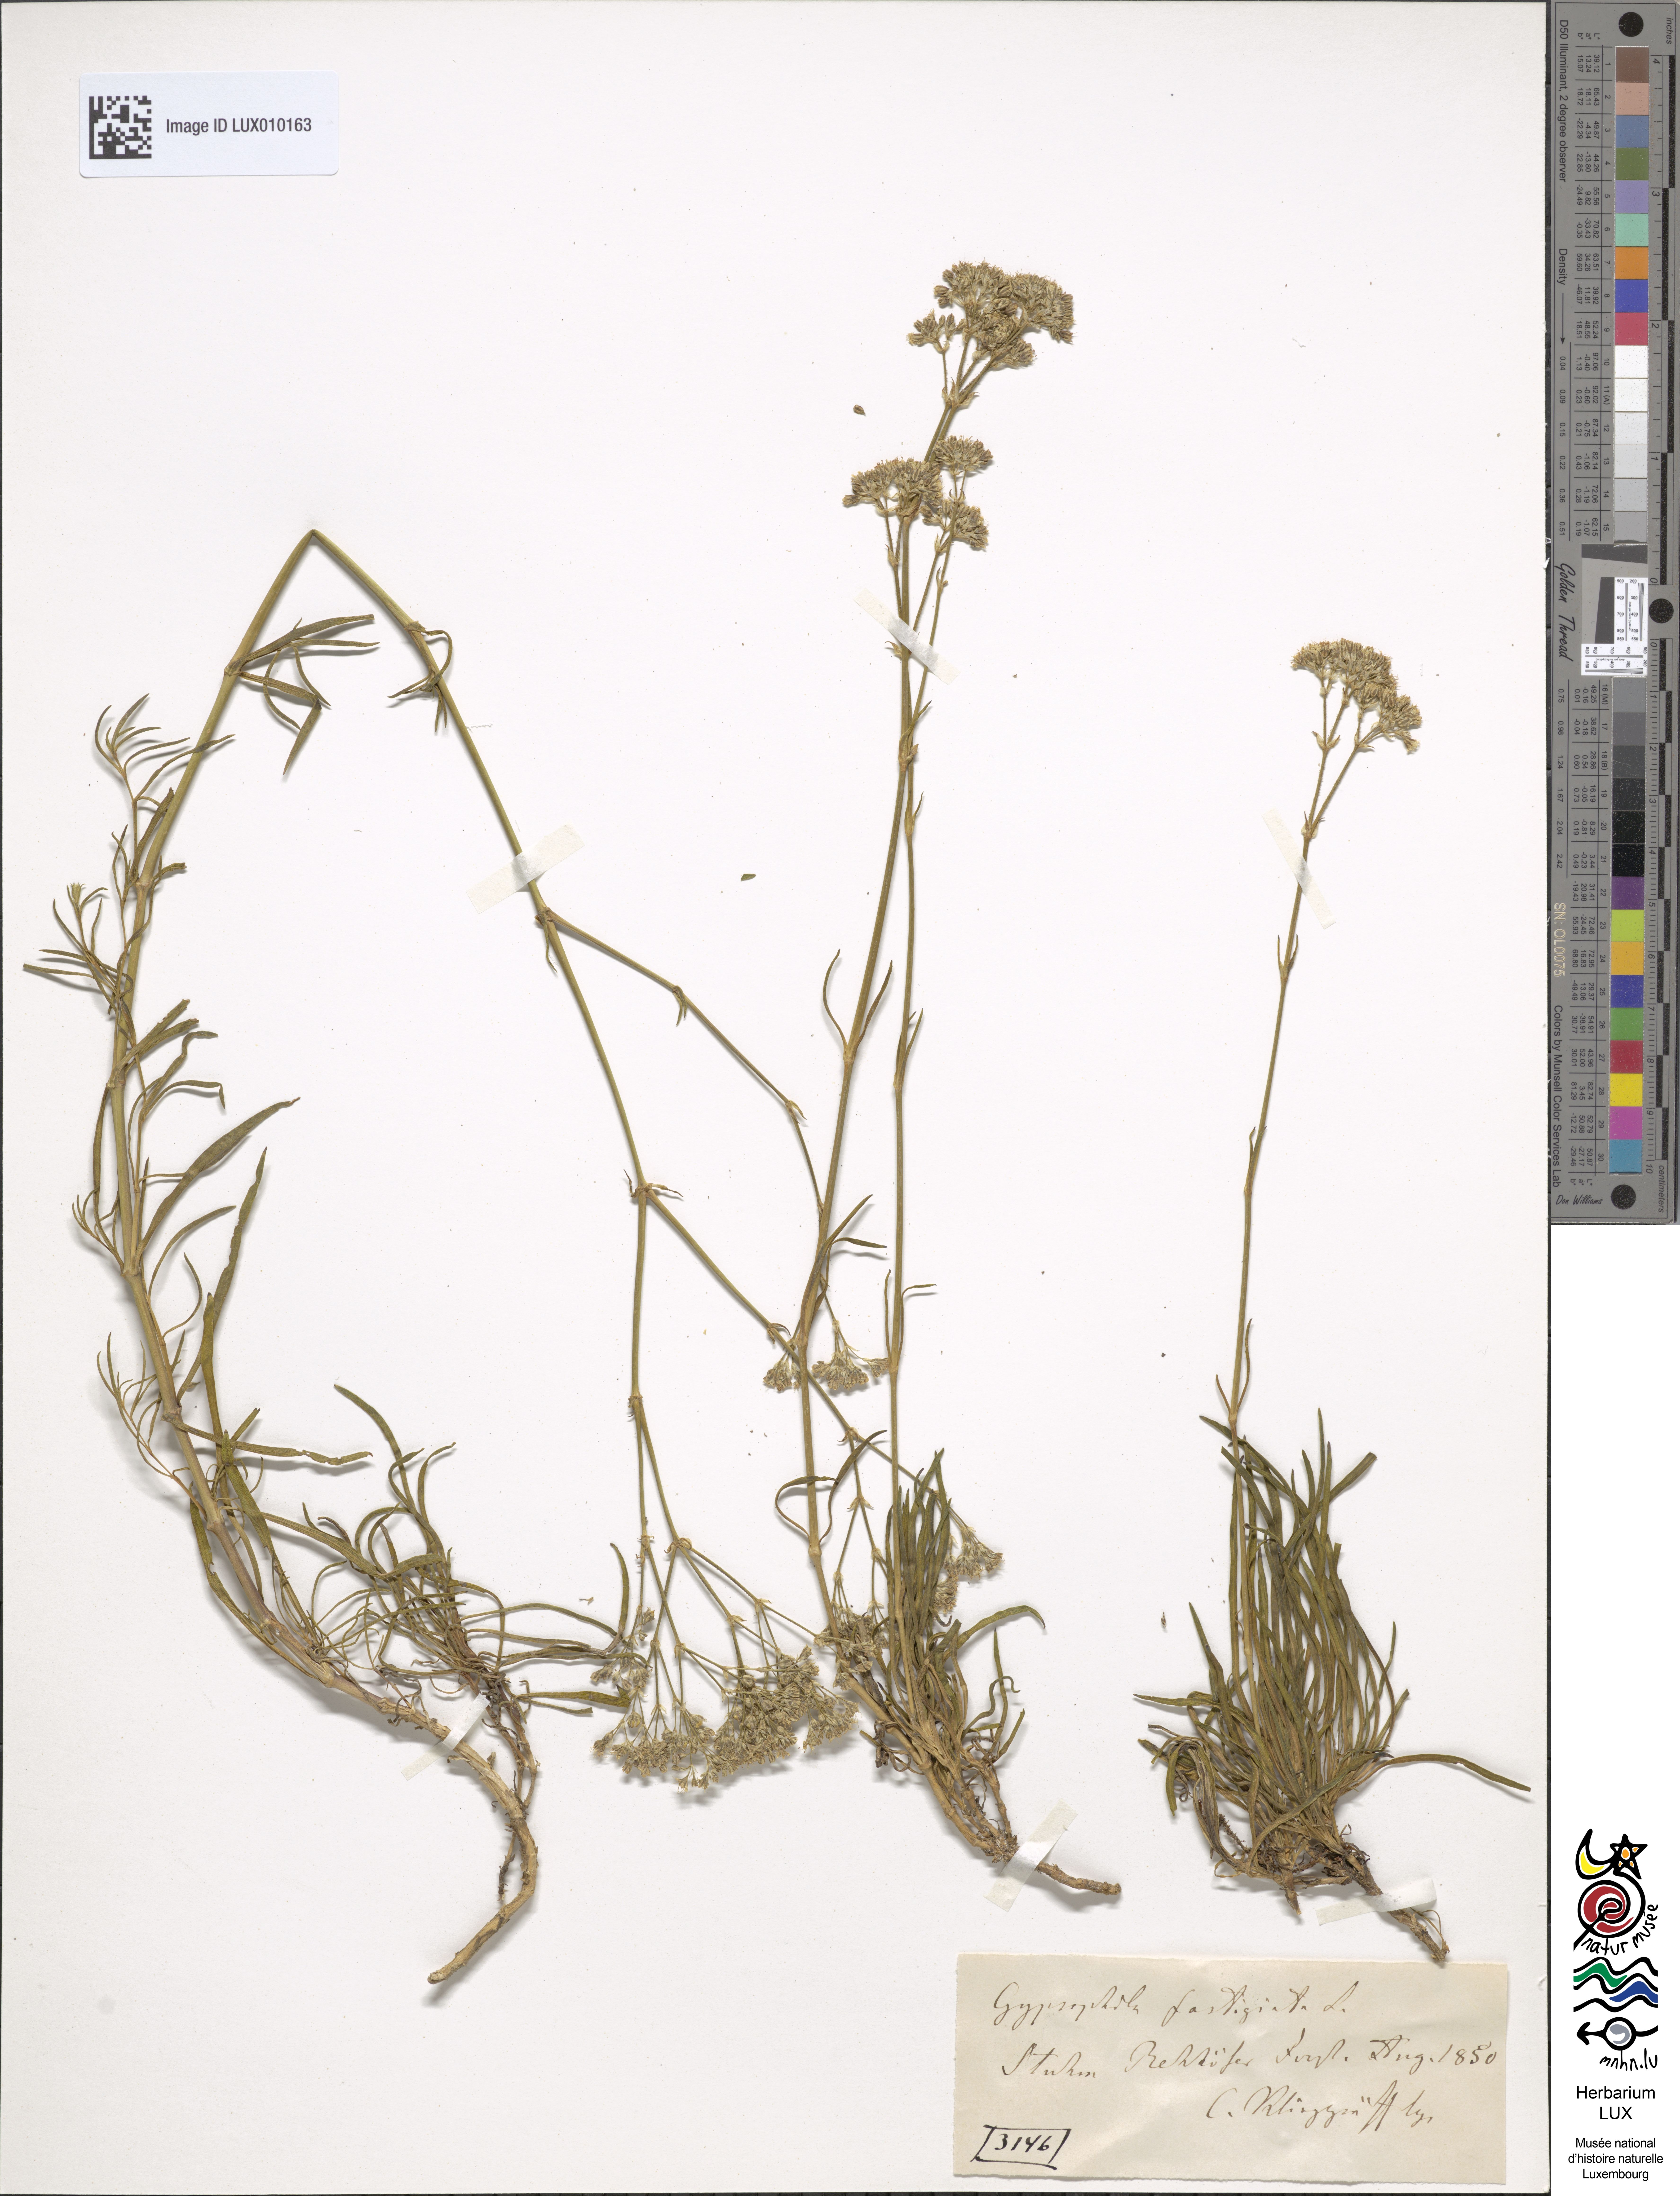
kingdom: Plantae
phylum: Tracheophyta
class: Magnoliopsida
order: Caryophyllales
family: Caryophyllaceae
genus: Gypsophila
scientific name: Gypsophila fastigiata
